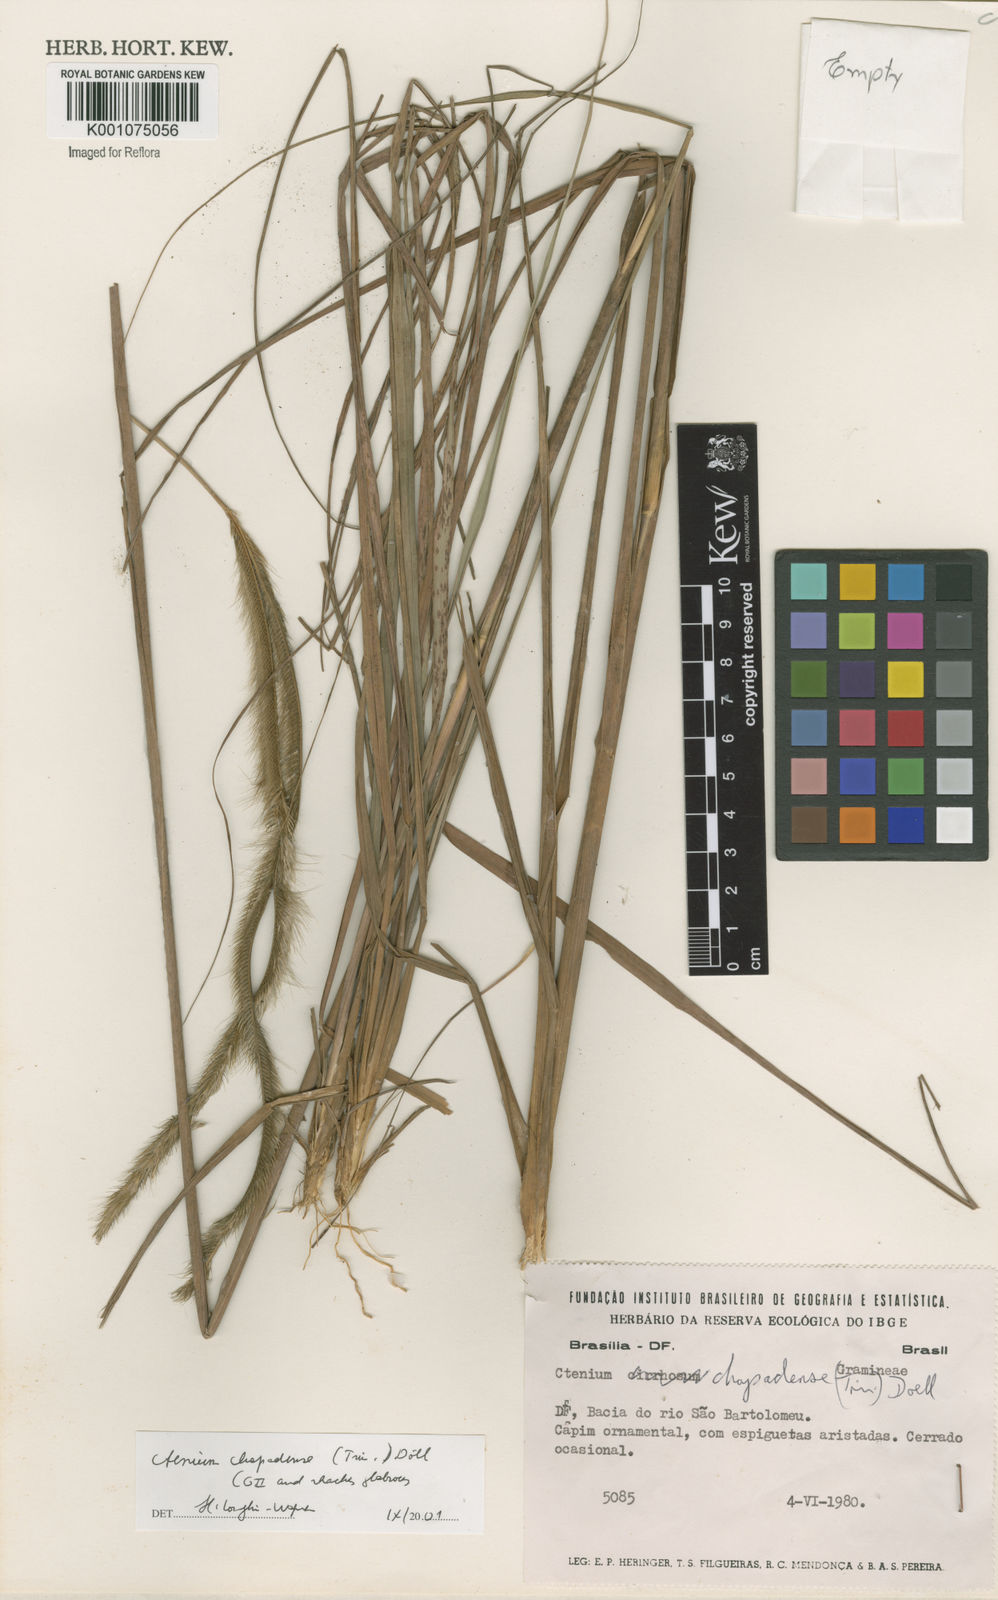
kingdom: Plantae
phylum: Tracheophyta
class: Liliopsida
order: Poales
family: Poaceae
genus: Ctenium
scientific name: Ctenium
